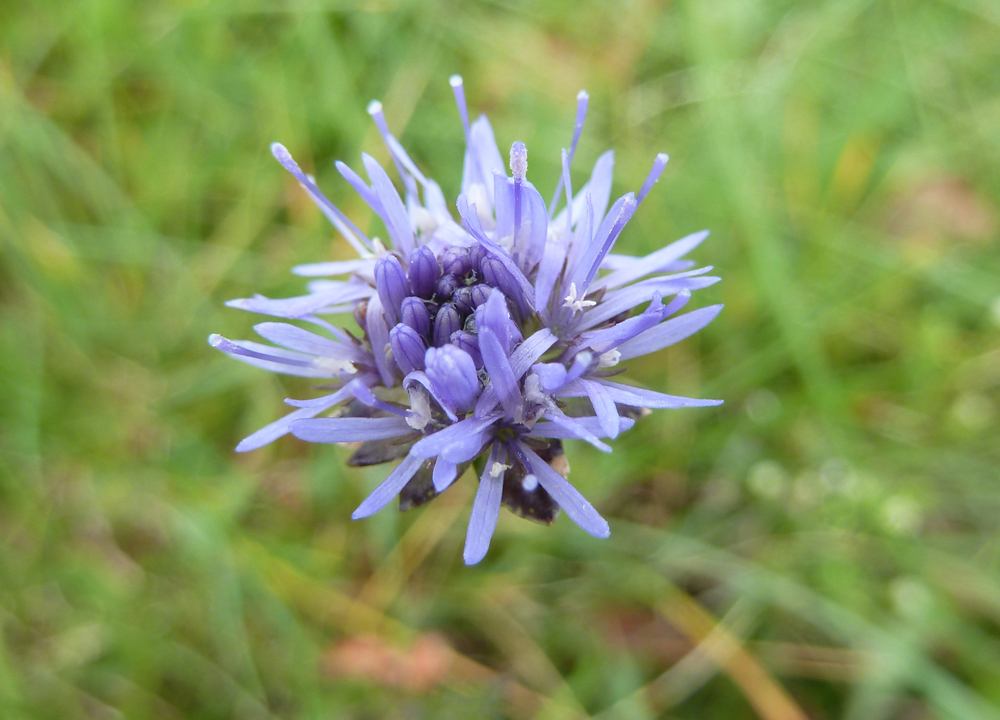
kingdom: Plantae
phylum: Tracheophyta
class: Magnoliopsida
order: Asterales
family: Campanulaceae
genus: Jasione
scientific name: Jasione montana
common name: Sheep's-bit
